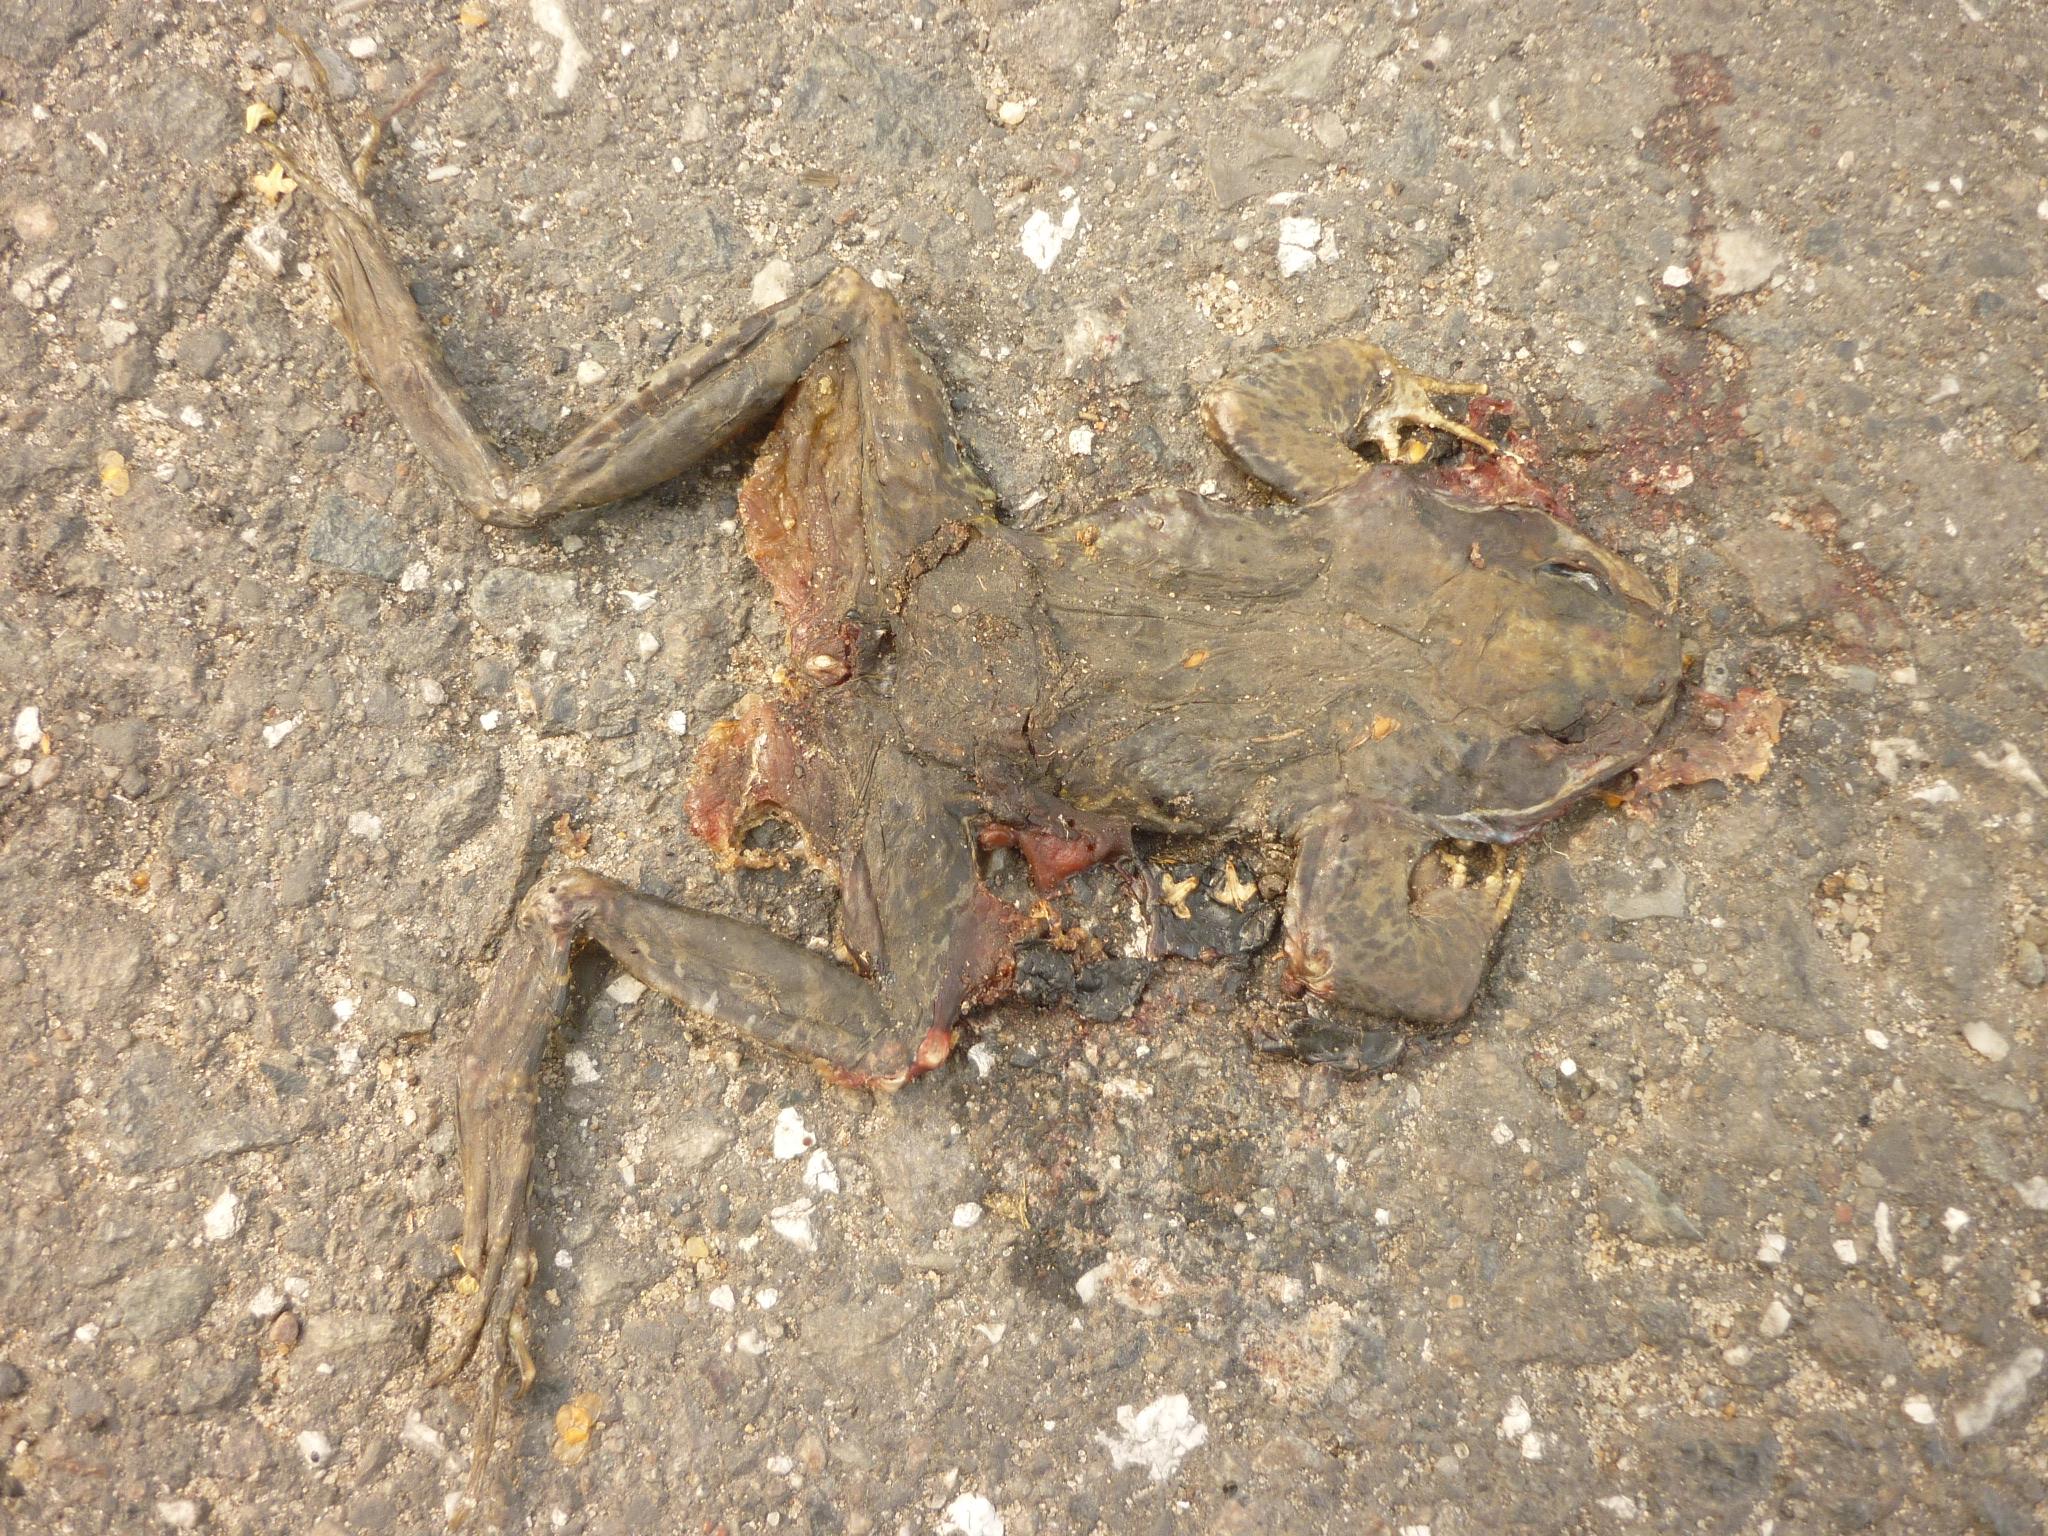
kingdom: Animalia
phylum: Chordata
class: Amphibia
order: Anura
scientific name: Anura
